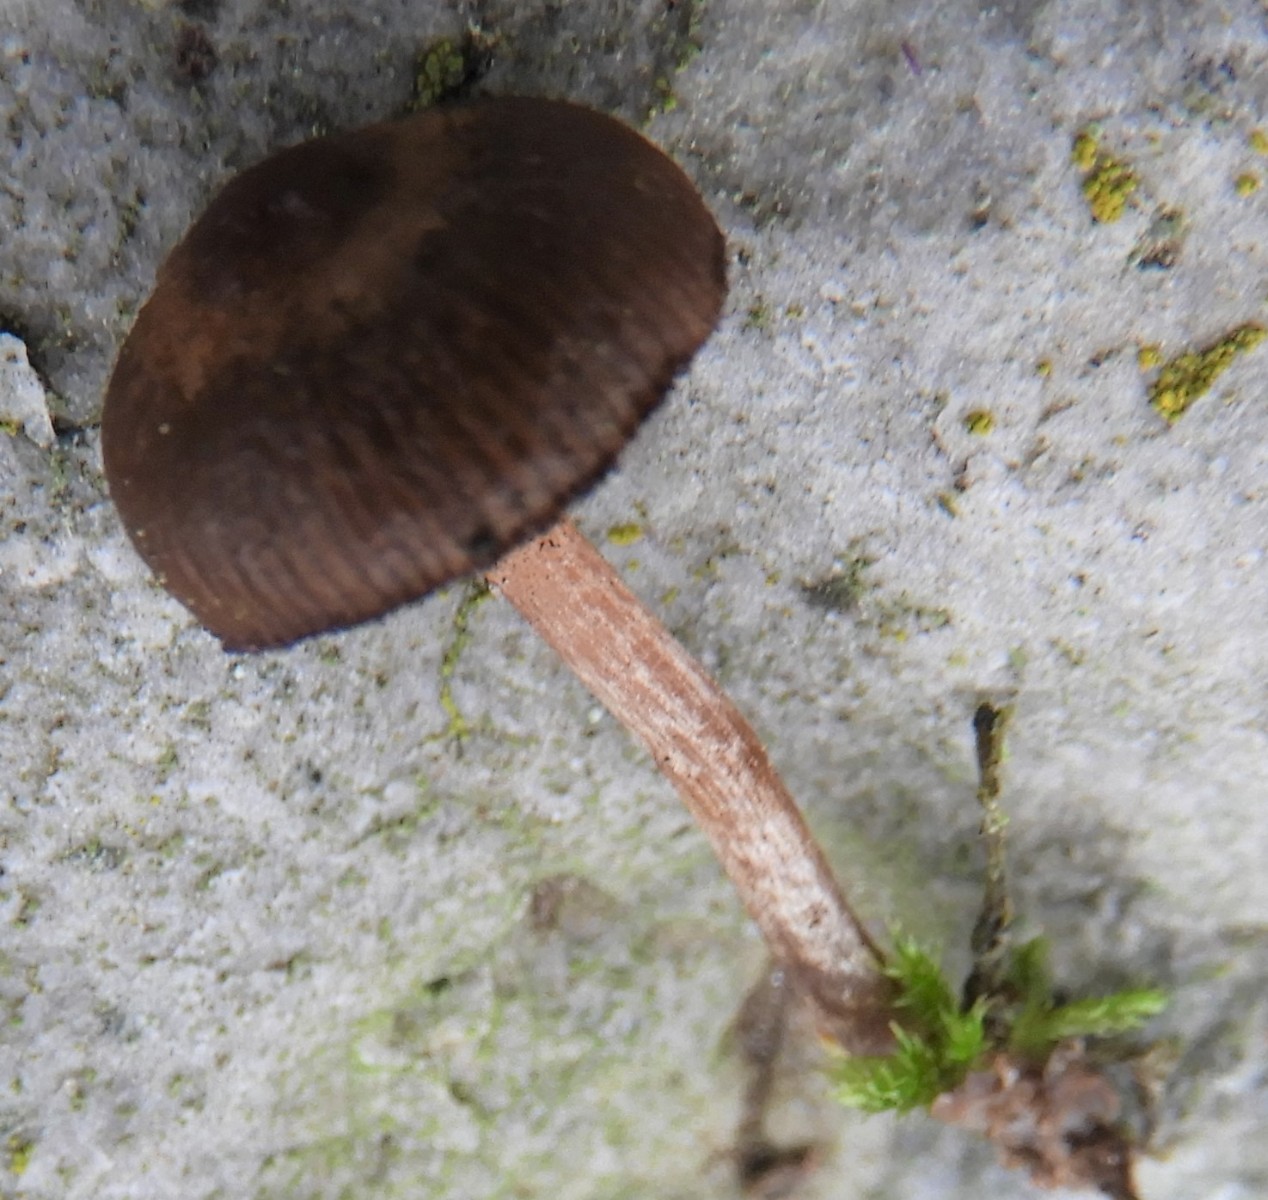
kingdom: Fungi
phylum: Basidiomycota
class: Agaricomycetes
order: Agaricales
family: Strophariaceae
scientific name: Strophariaceae
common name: bredbladfamilien
